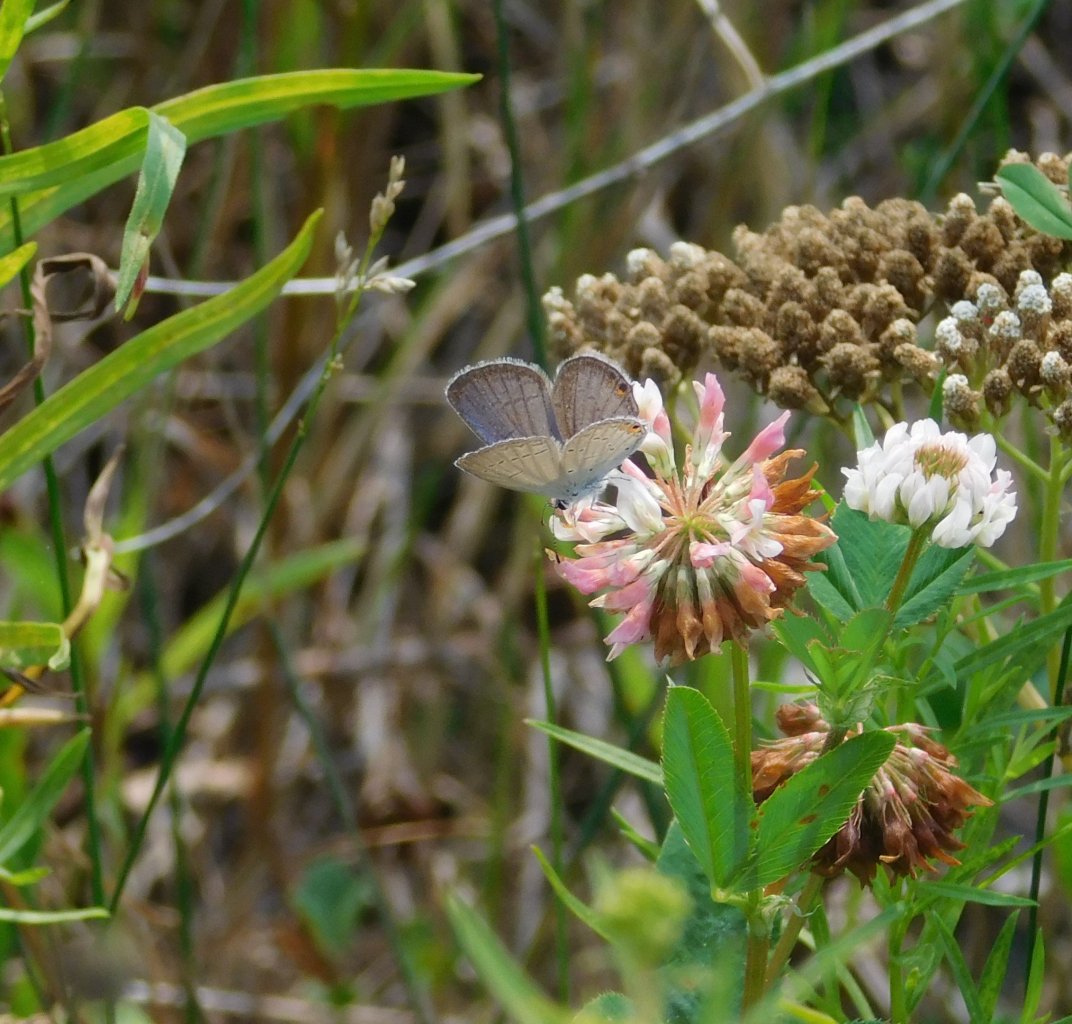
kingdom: Animalia
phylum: Arthropoda
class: Insecta
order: Lepidoptera
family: Lycaenidae
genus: Elkalyce
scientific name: Elkalyce comyntas
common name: Eastern Tailed-Blue
